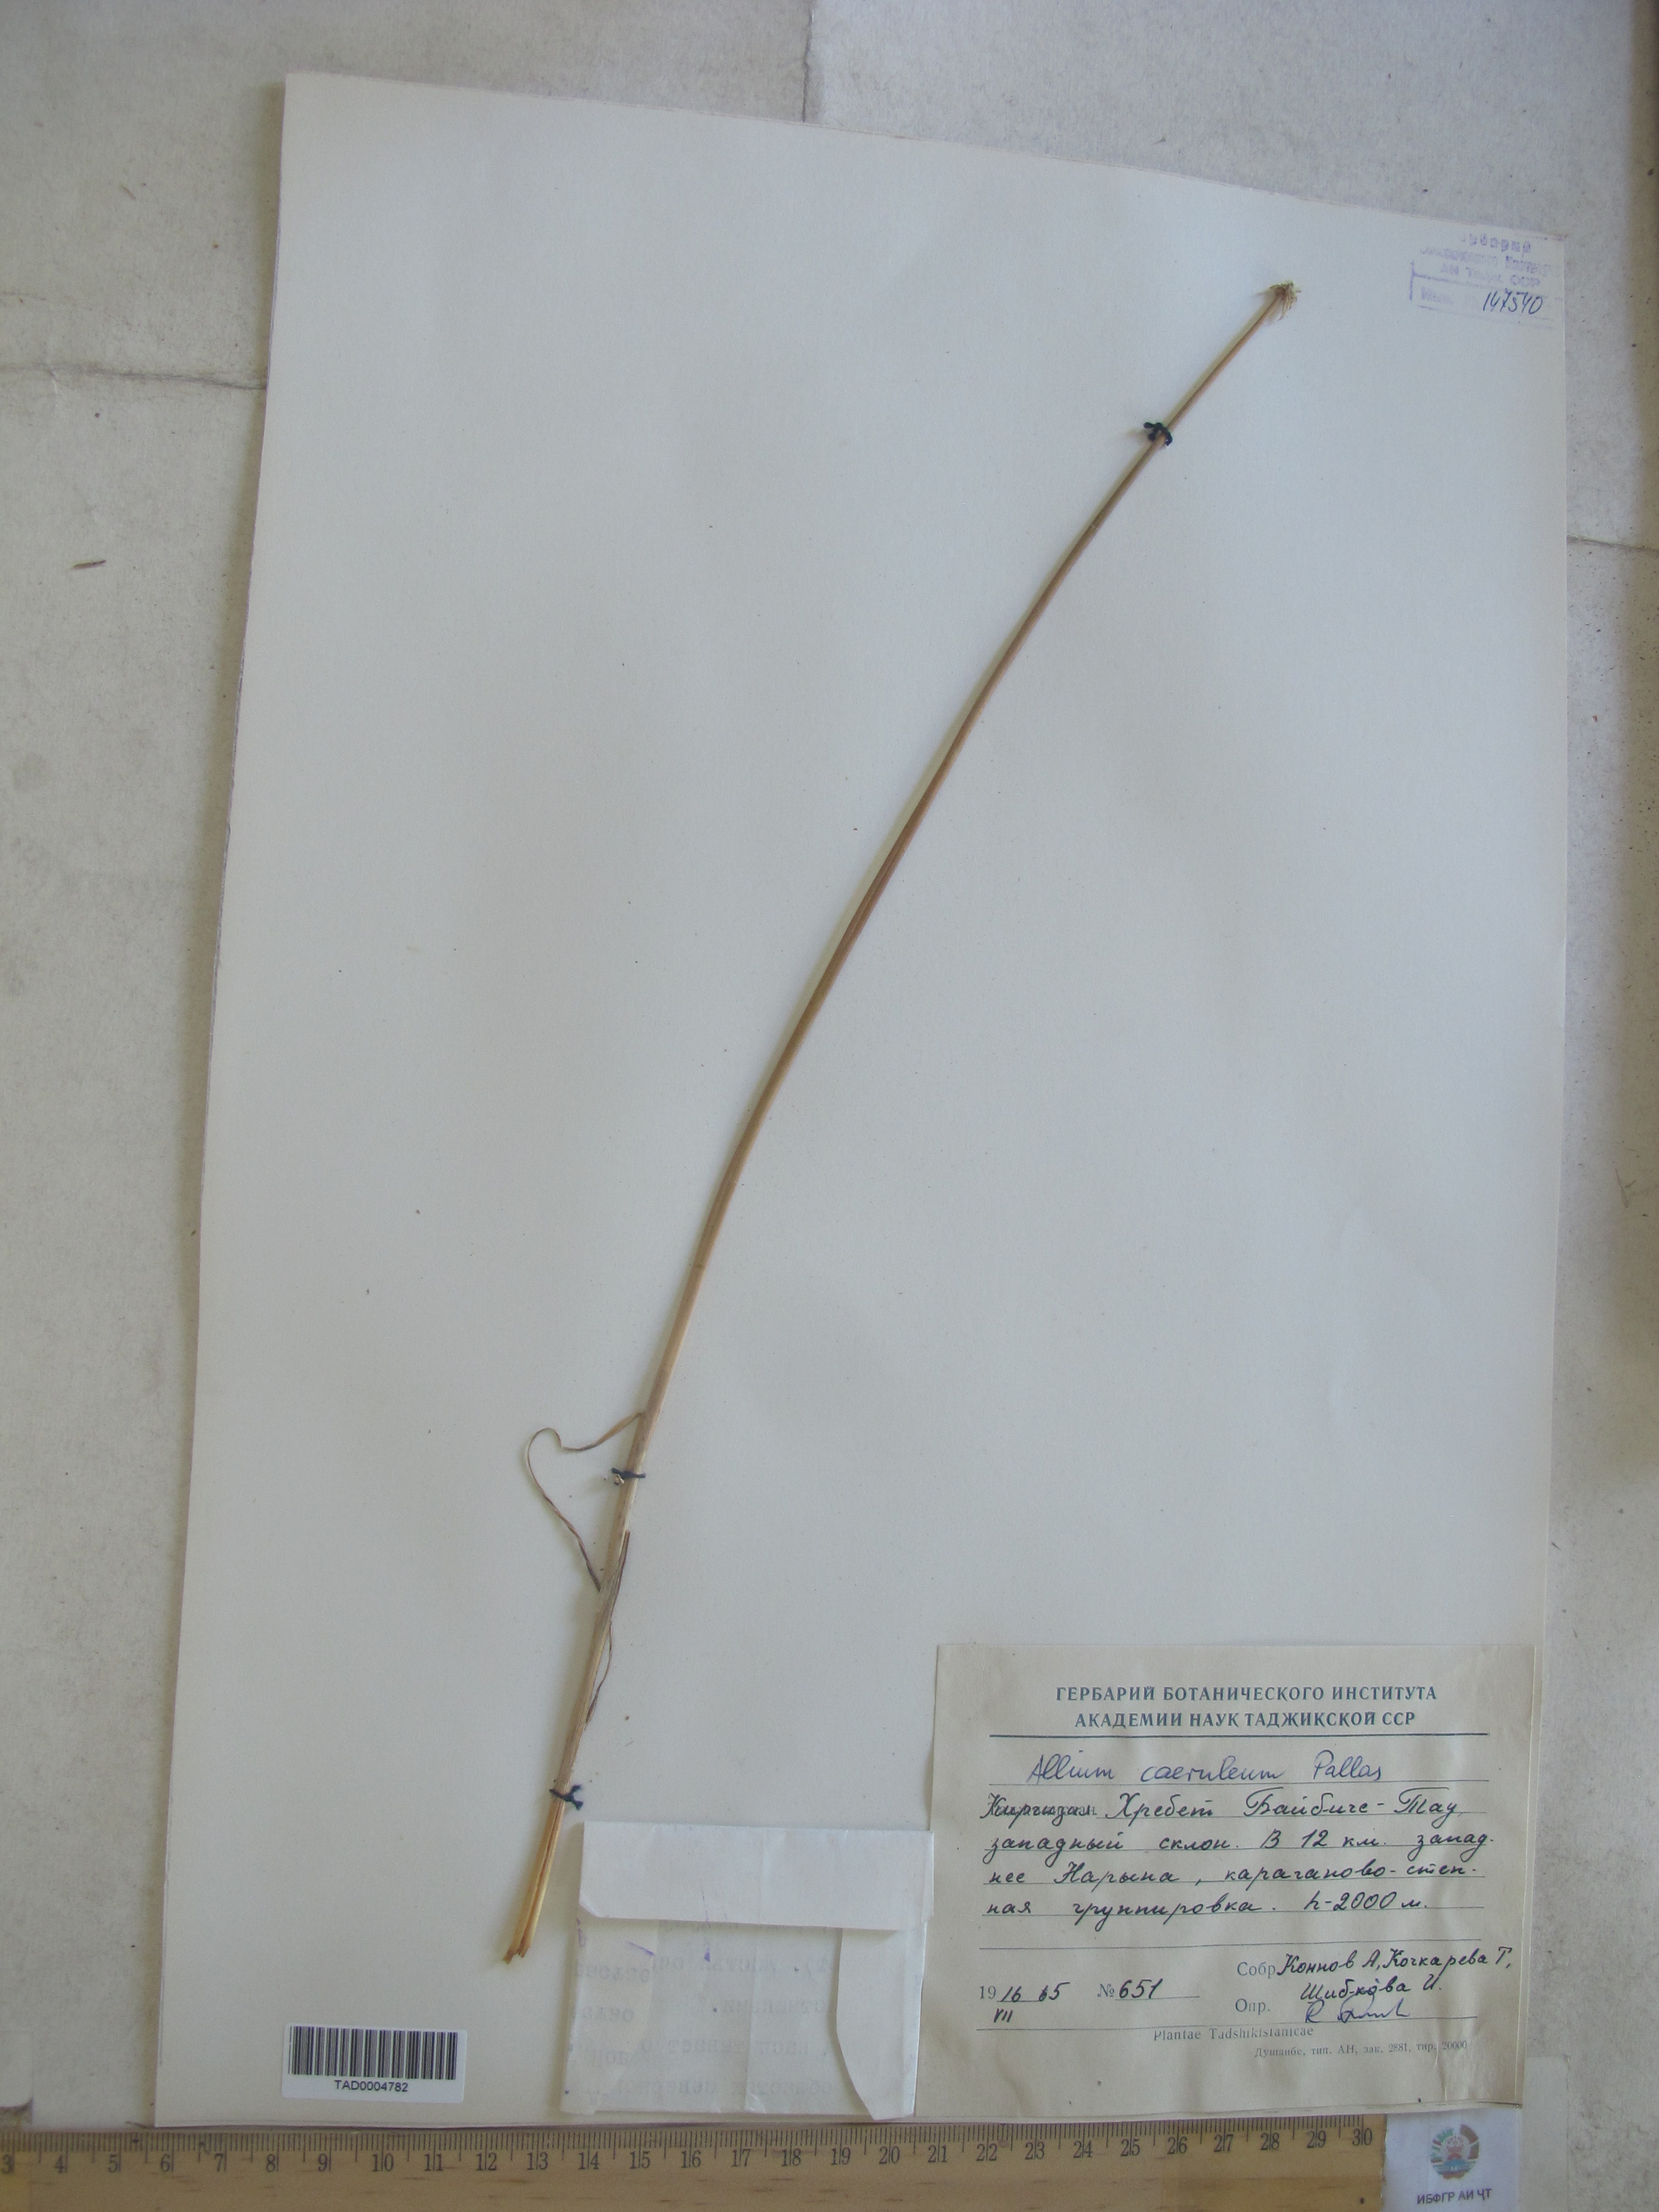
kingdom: Plantae
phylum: Tracheophyta
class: Liliopsida
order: Asparagales
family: Amaryllidaceae
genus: Allium
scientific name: Allium caeruleum
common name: Blue-of-the-heavens
